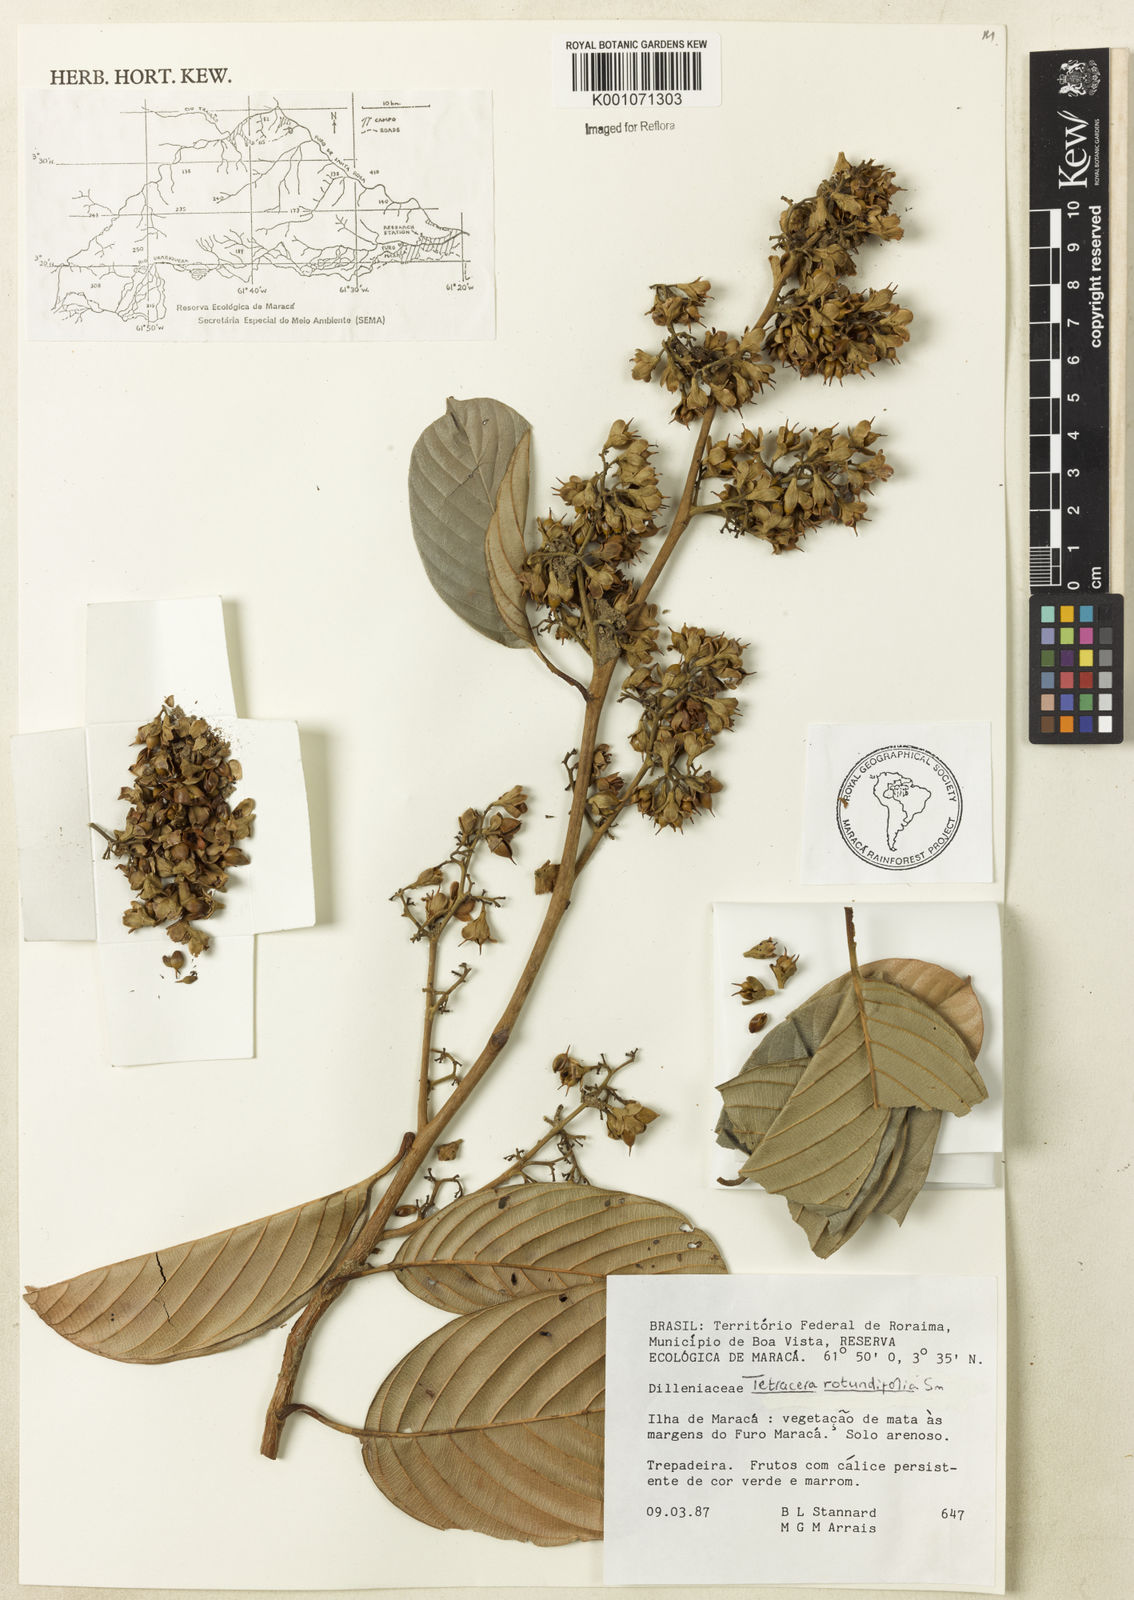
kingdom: Plantae
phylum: Tracheophyta
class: Magnoliopsida
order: Dilleniales
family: Dilleniaceae
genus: Tetracera
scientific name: Tetracera rotundifolia
